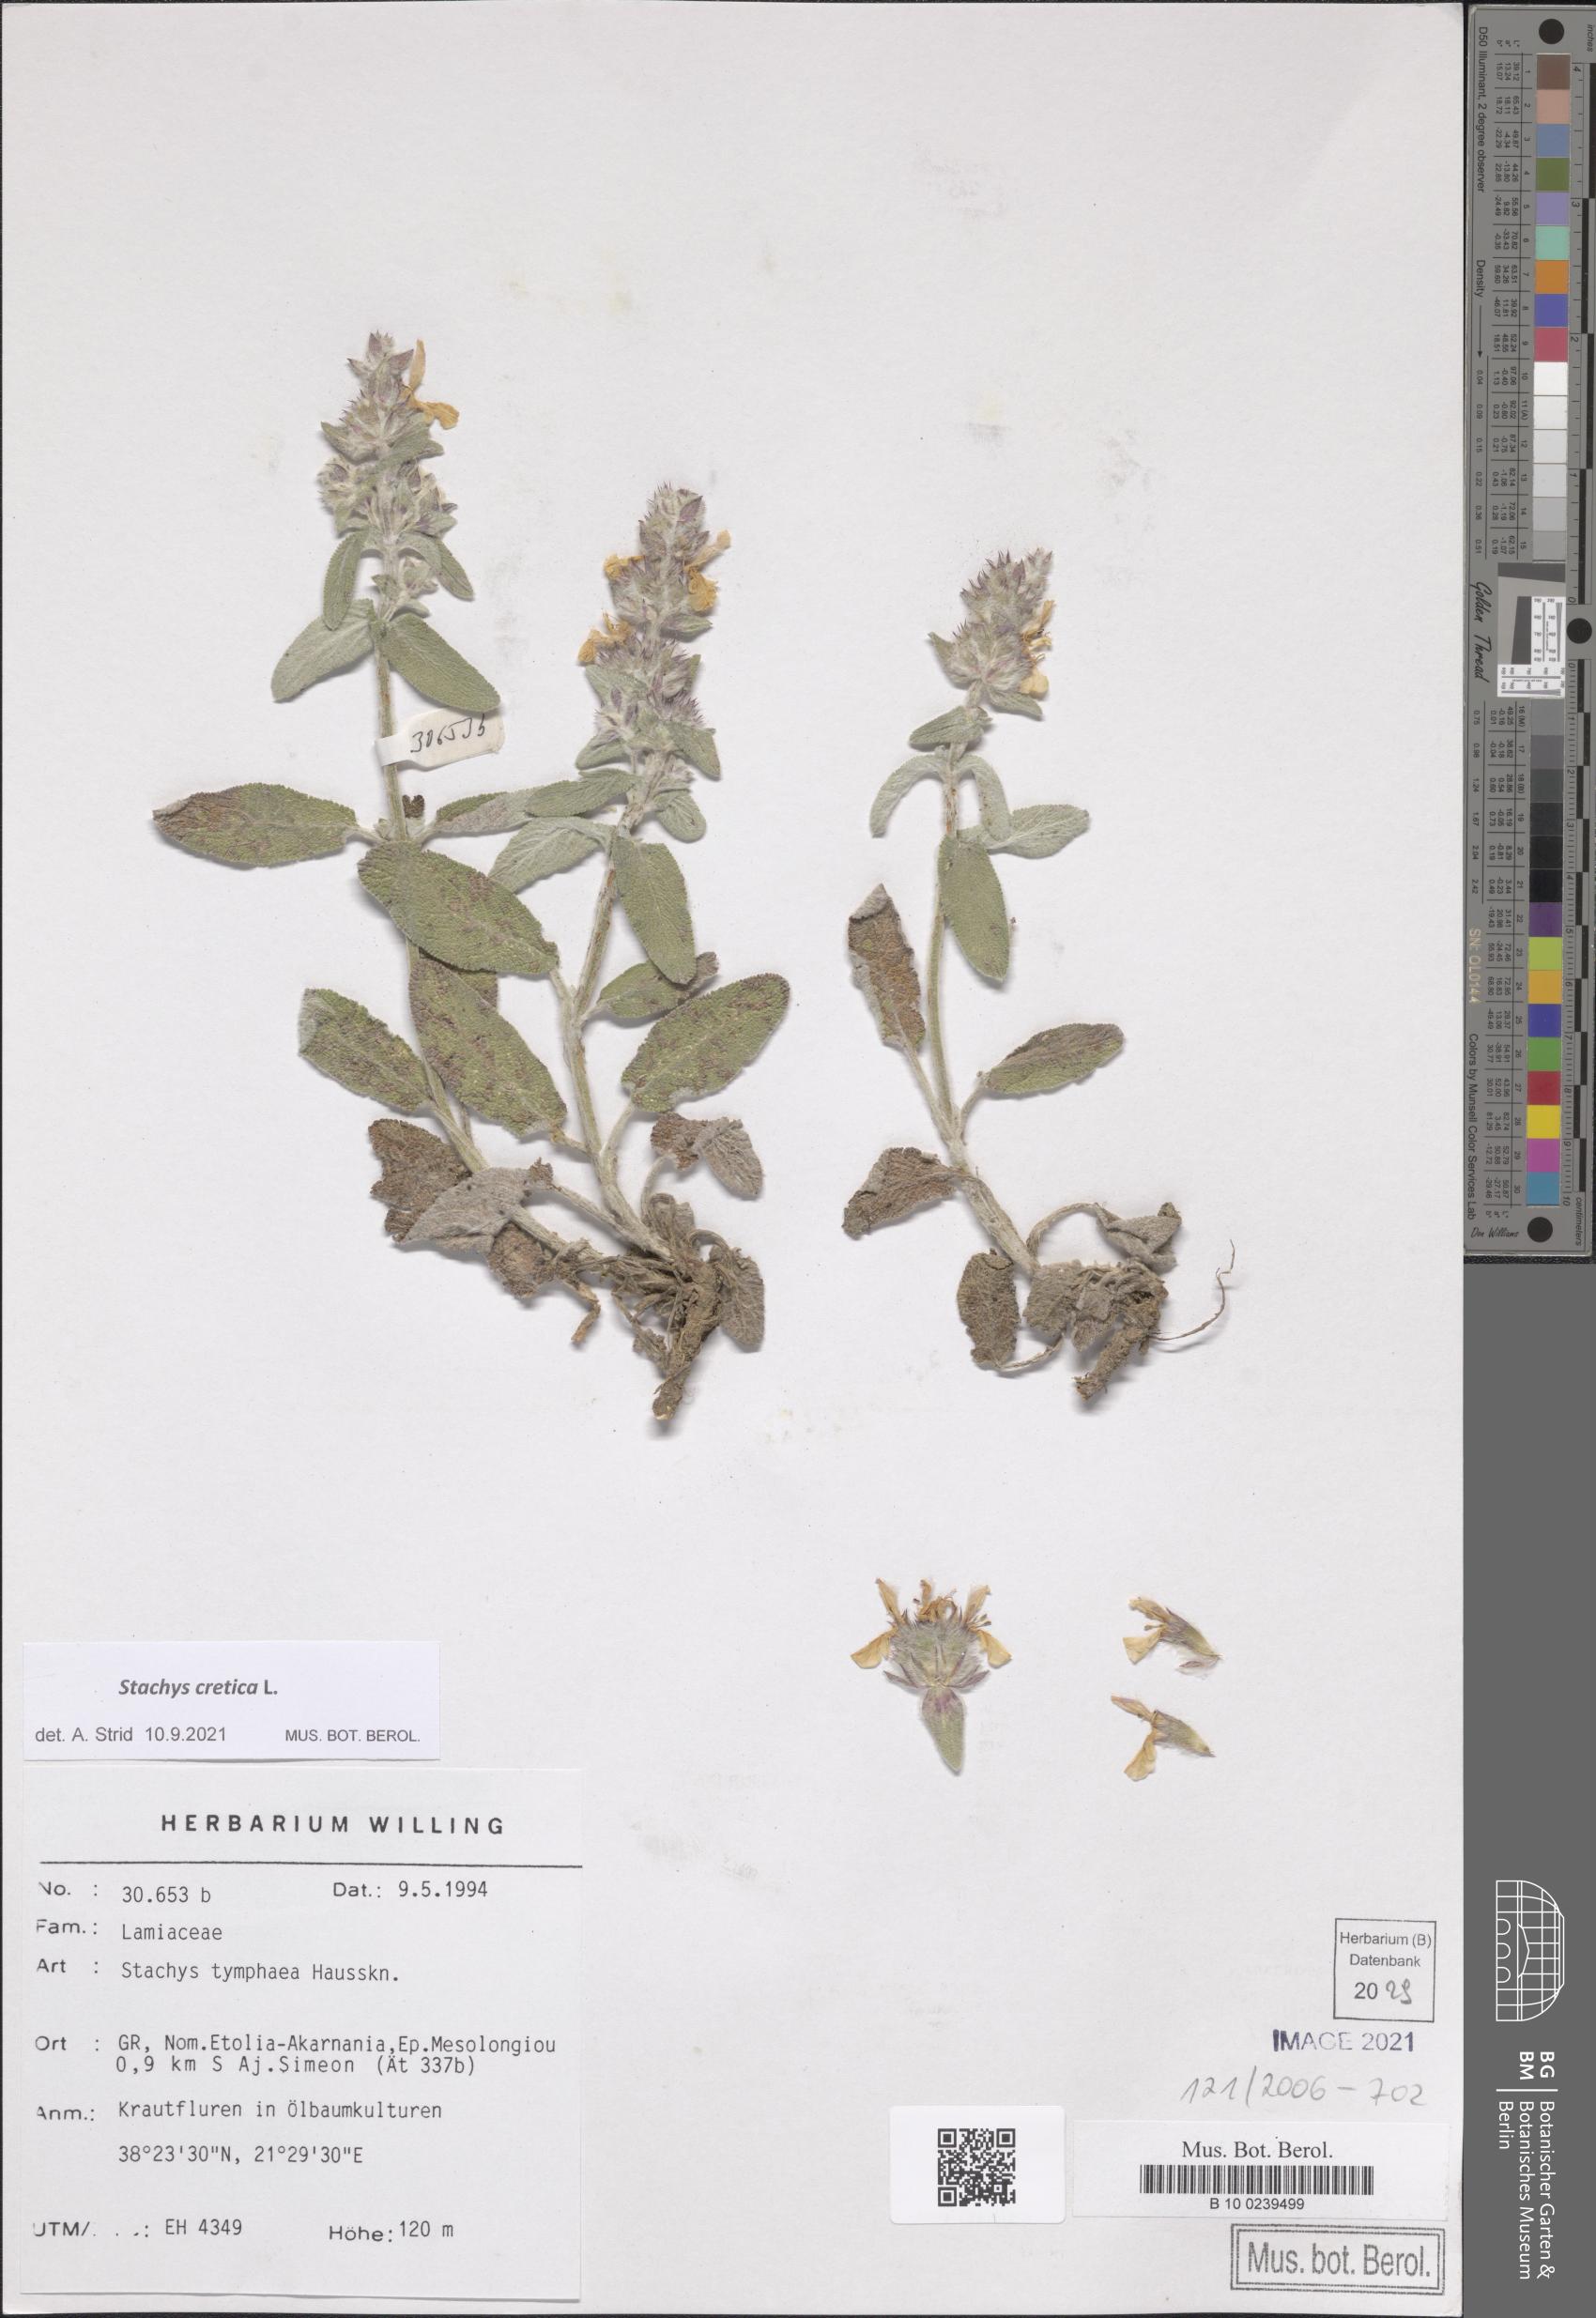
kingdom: Plantae
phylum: Tracheophyta
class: Magnoliopsida
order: Lamiales
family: Lamiaceae
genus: Stachys
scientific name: Stachys cretica
